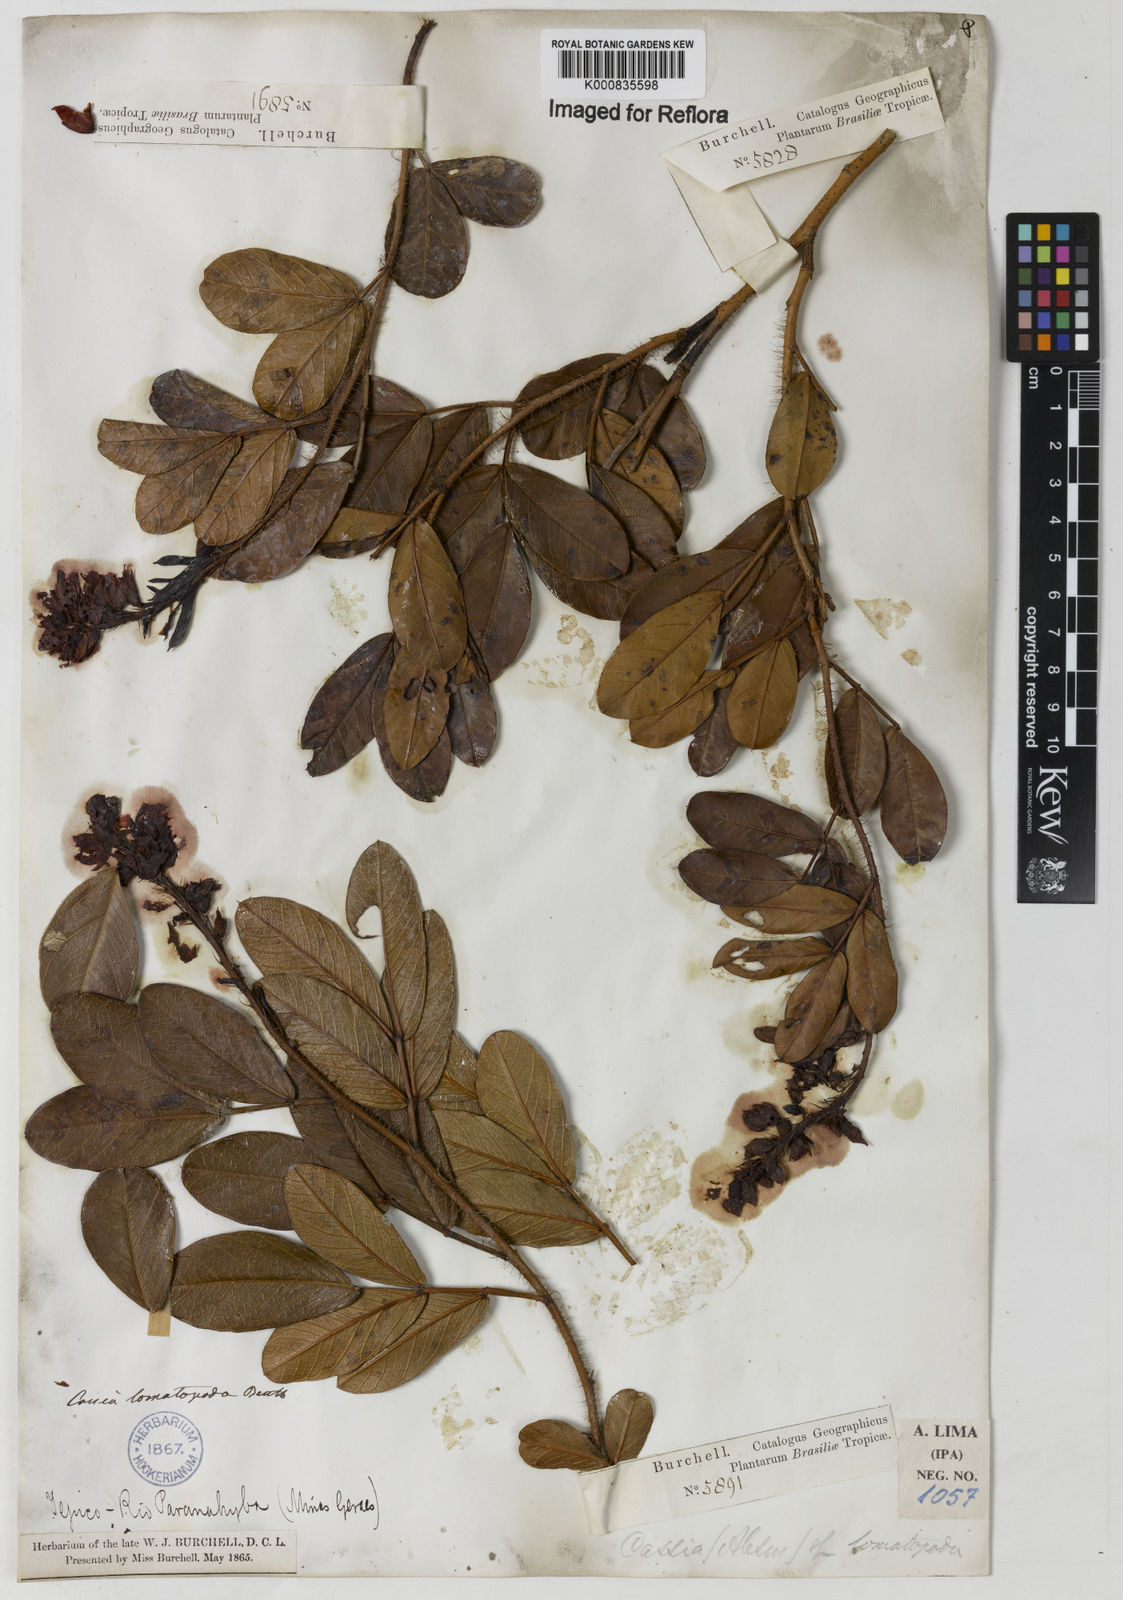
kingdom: Plantae
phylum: Tracheophyta
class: Magnoliopsida
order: Fabales
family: Fabaceae
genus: Chamaecrista
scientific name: Chamaecrista lomatopoda
